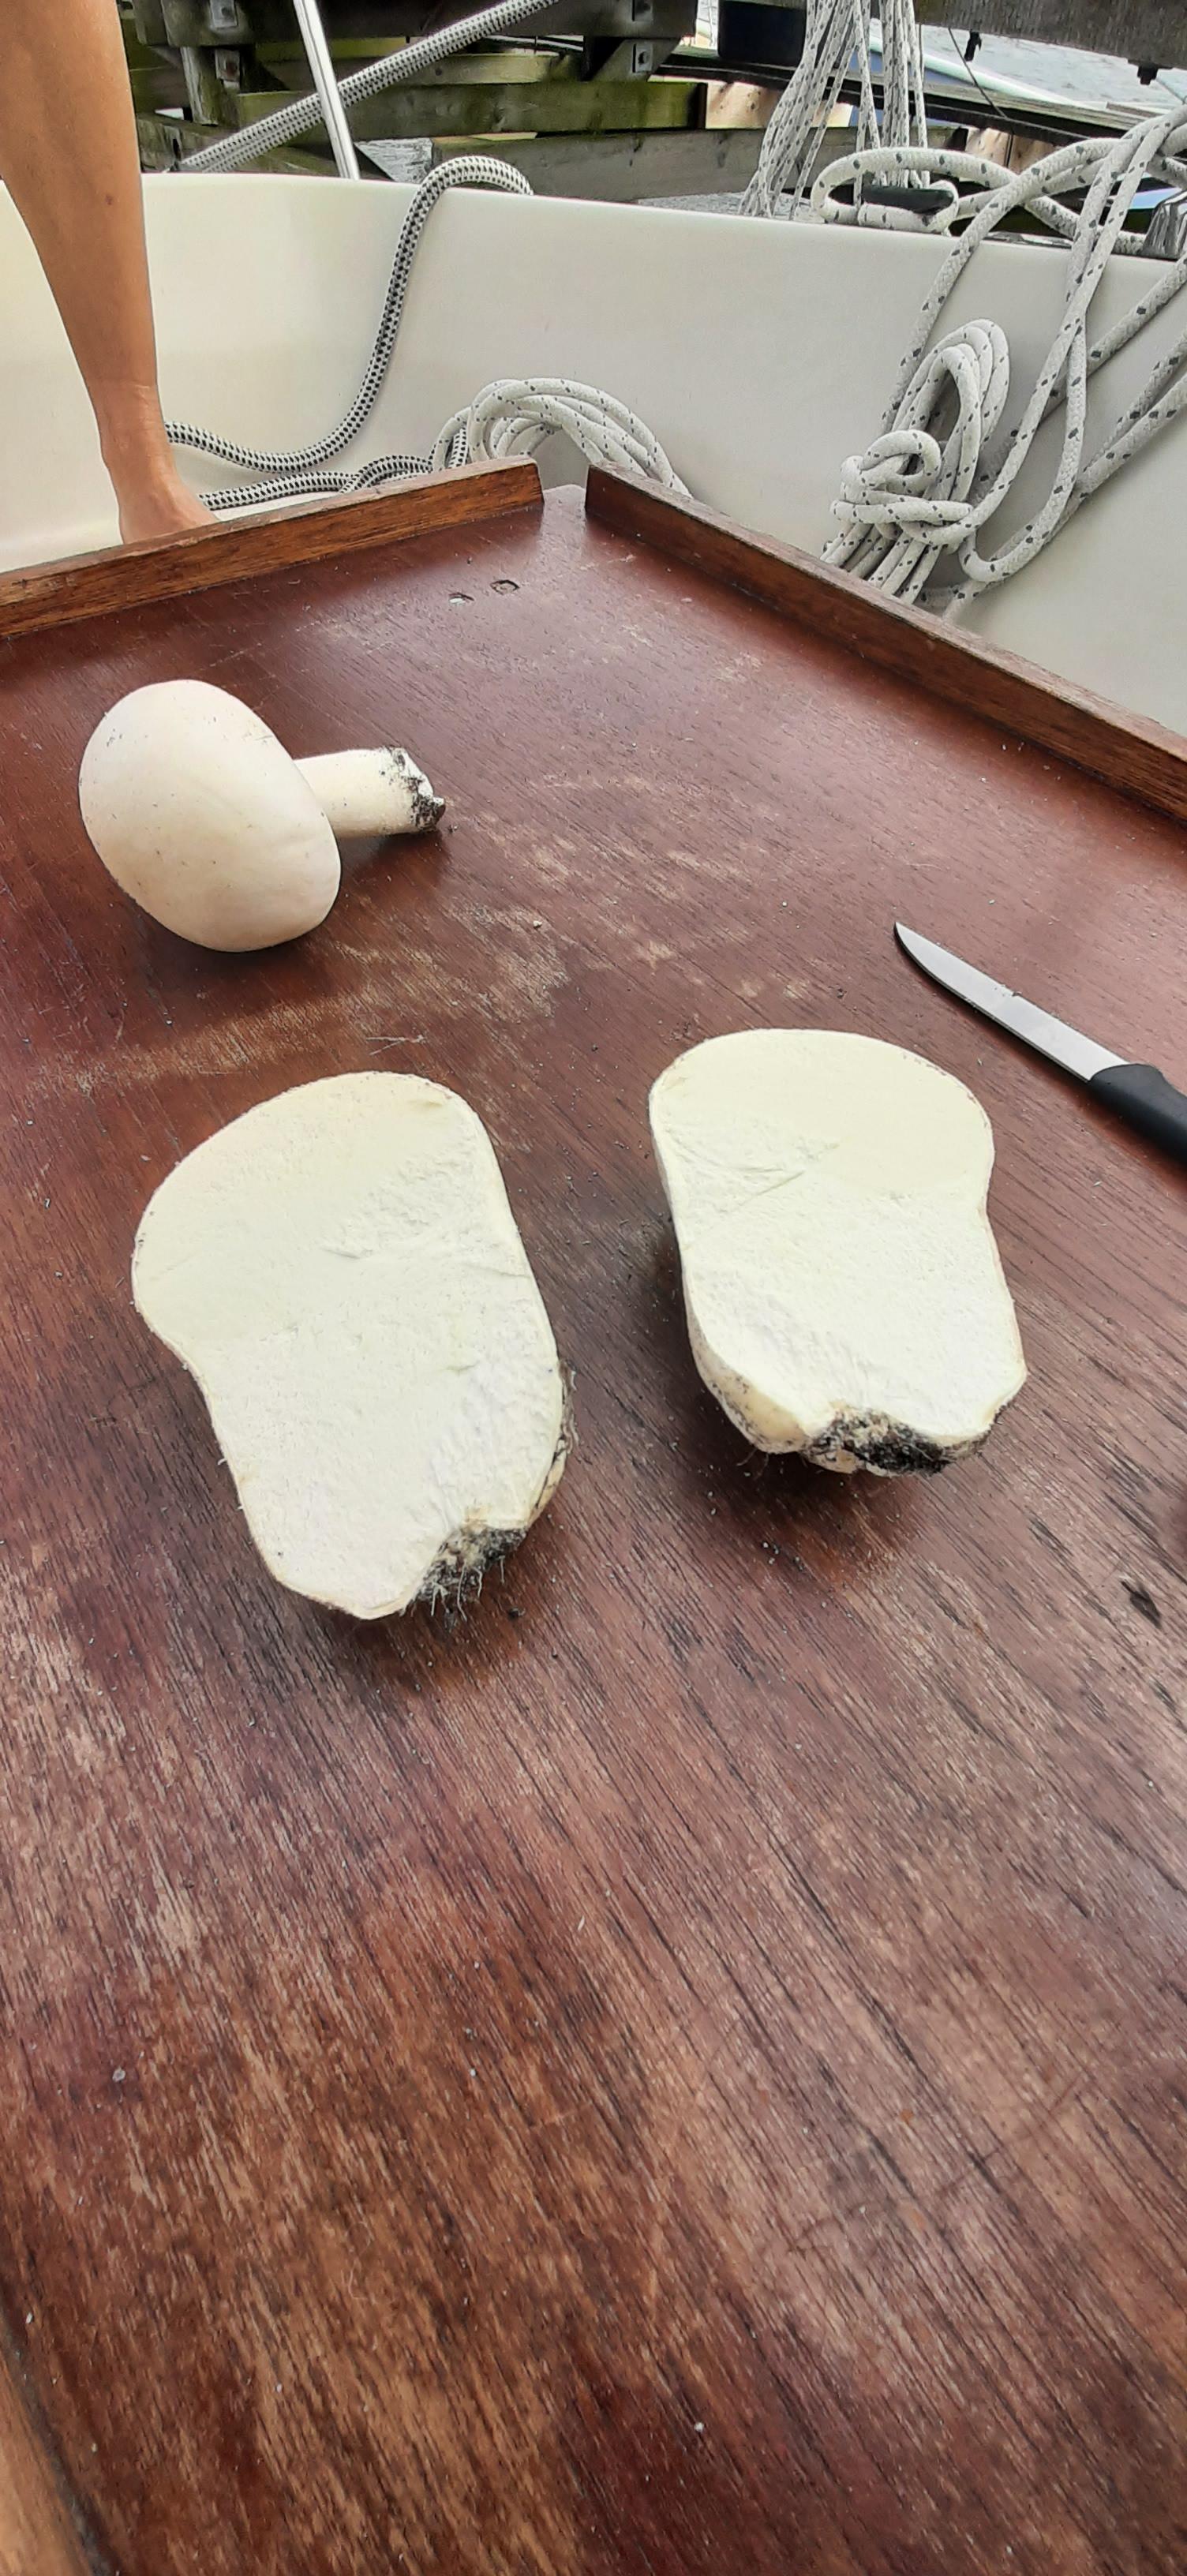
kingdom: Fungi
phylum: Basidiomycota
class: Agaricomycetes
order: Agaricales
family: Lycoperdaceae
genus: Bovistella
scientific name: Bovistella utriformis
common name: skællet støvbold
